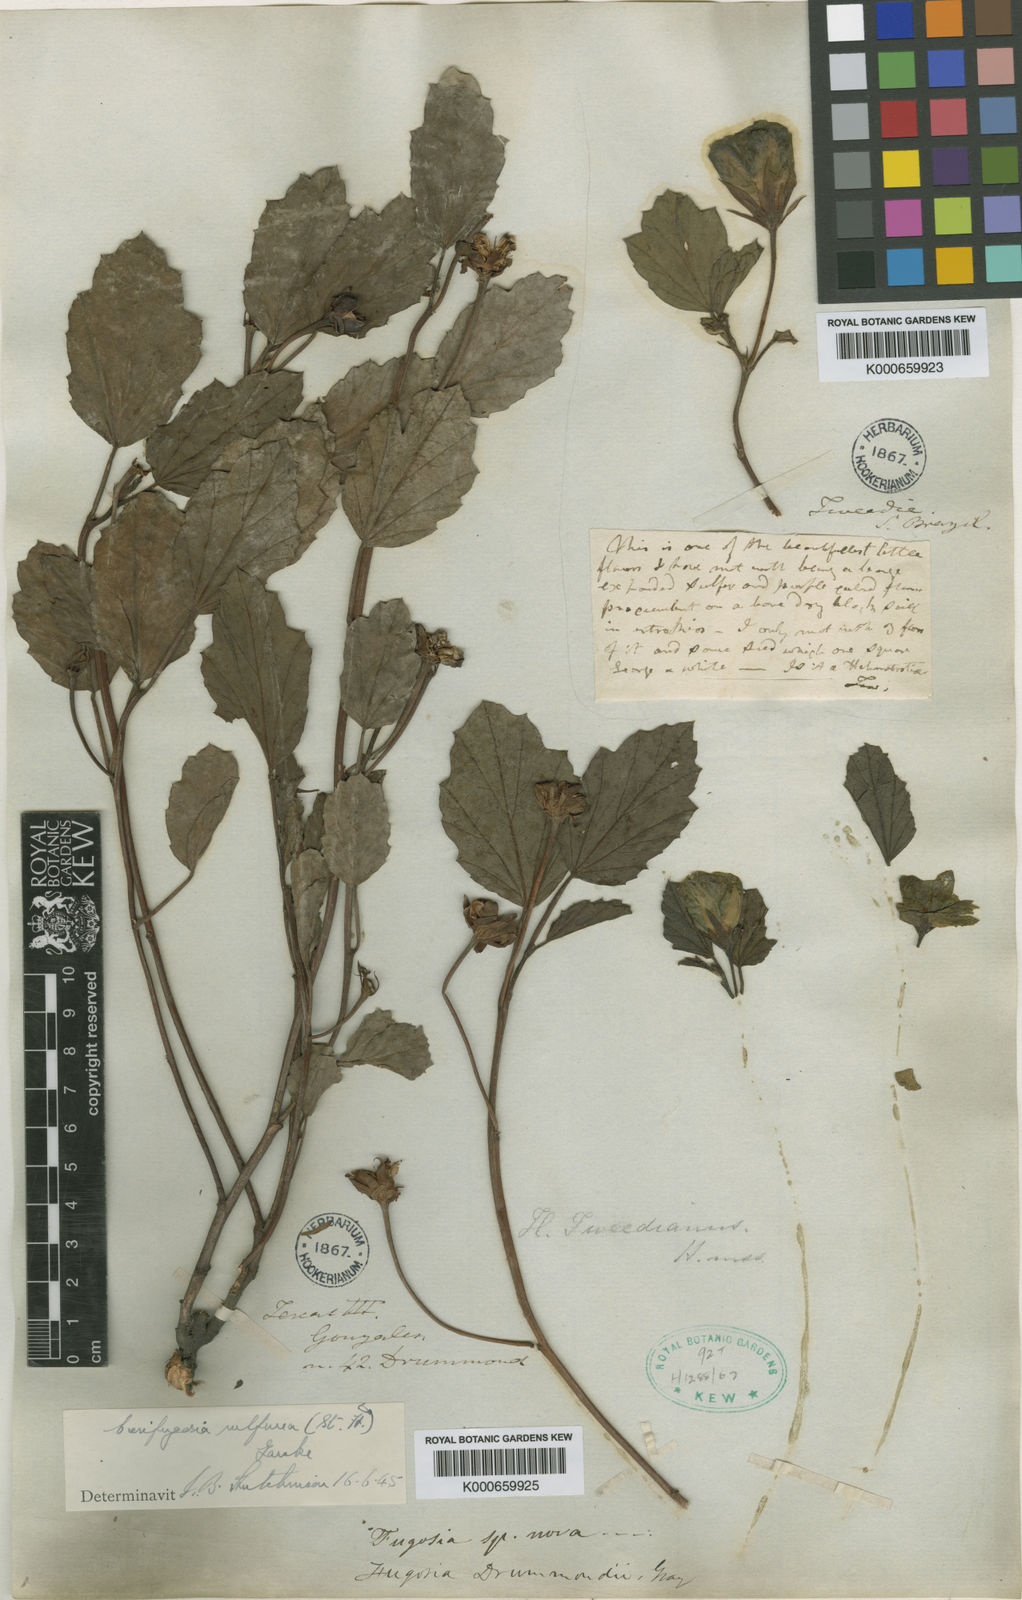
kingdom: Plantae
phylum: Tracheophyta
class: Magnoliopsida
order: Malvales
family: Malvaceae
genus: Cienfuegosia
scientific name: Cienfuegosia sulfurea
